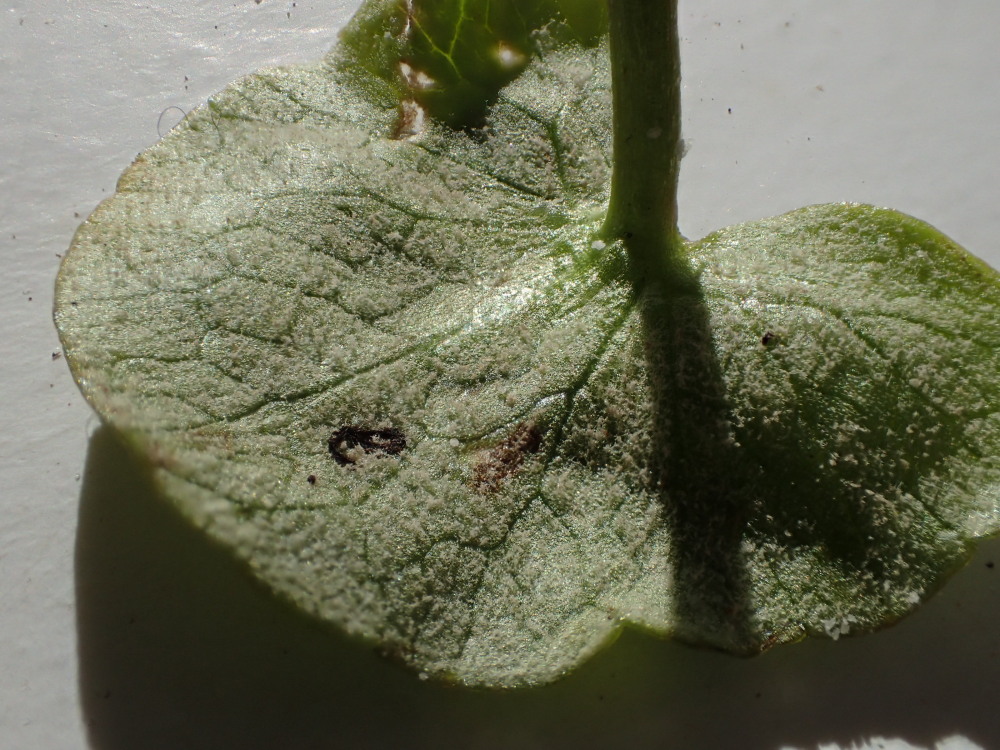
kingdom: Chromista
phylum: Oomycota
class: Peronosporea
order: Peronosporales
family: Peronosporaceae
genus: Peronospora
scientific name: Peronospora ficariae
